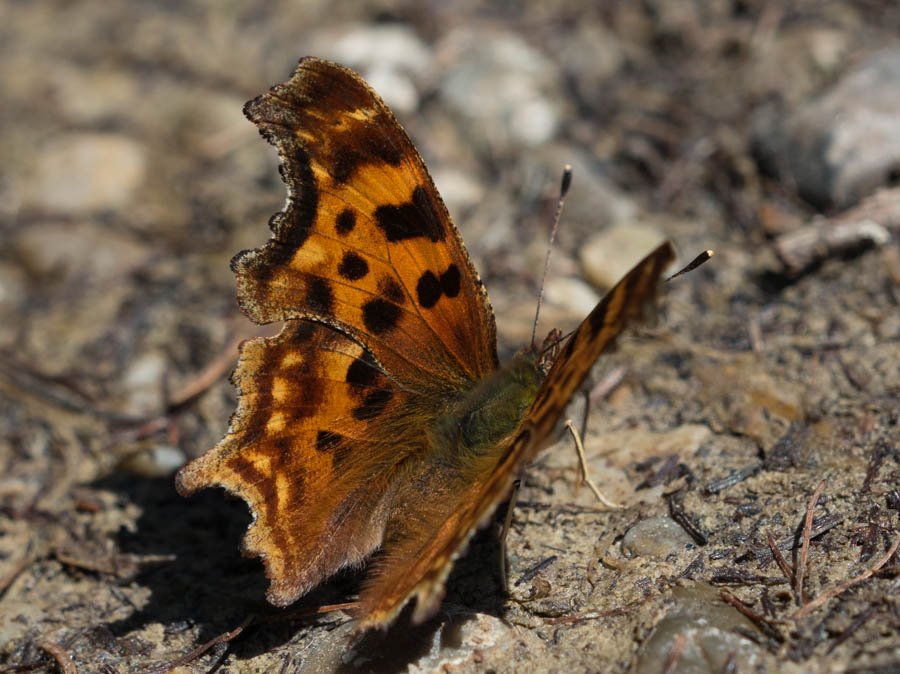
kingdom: Animalia
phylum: Arthropoda
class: Insecta
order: Lepidoptera
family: Nymphalidae
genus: Polygonia
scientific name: Polygonia satyrus
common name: Satyr Comma
